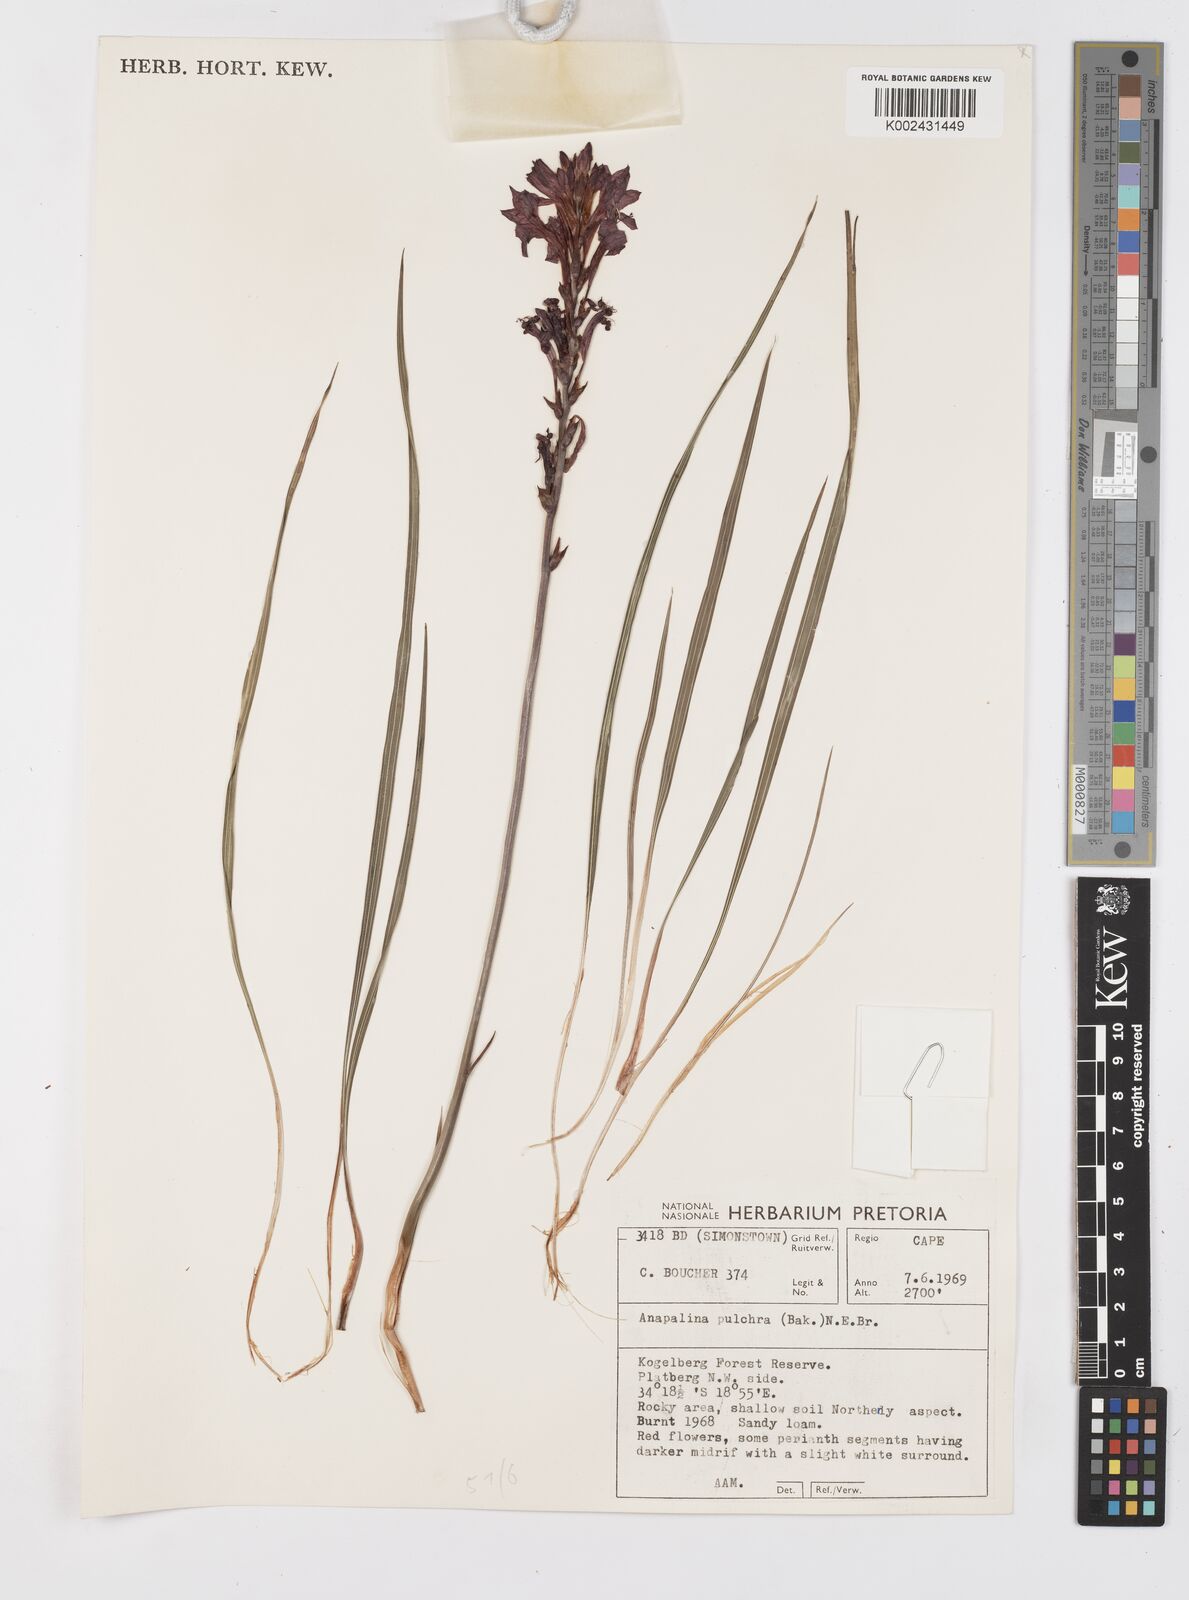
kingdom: Plantae
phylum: Tracheophyta
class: Liliopsida
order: Asparagales
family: Iridaceae
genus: Tritoniopsis
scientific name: Tritoniopsis pulchra
